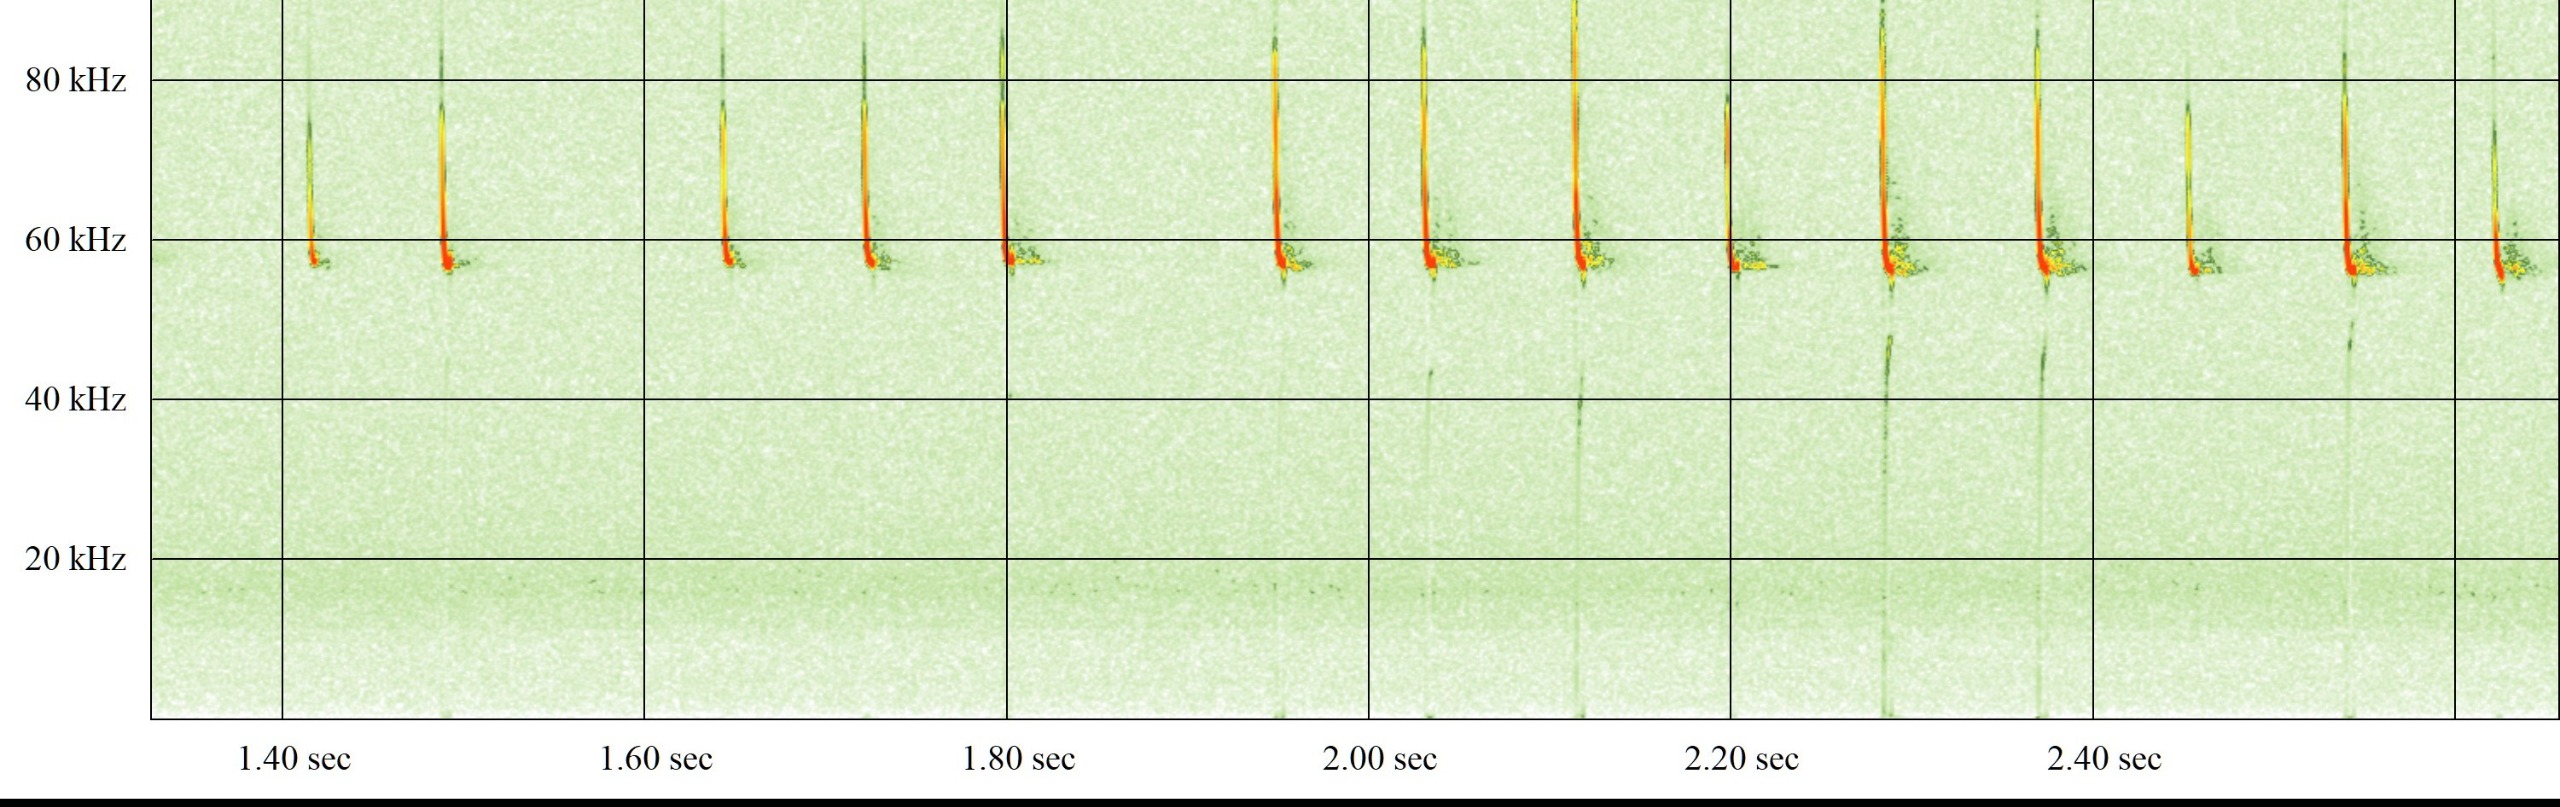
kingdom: Animalia
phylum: Chordata
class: Mammalia
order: Chiroptera
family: Vespertilionidae
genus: Pipistrellus
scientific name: Pipistrellus pygmaeus
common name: Dværgflagermus
